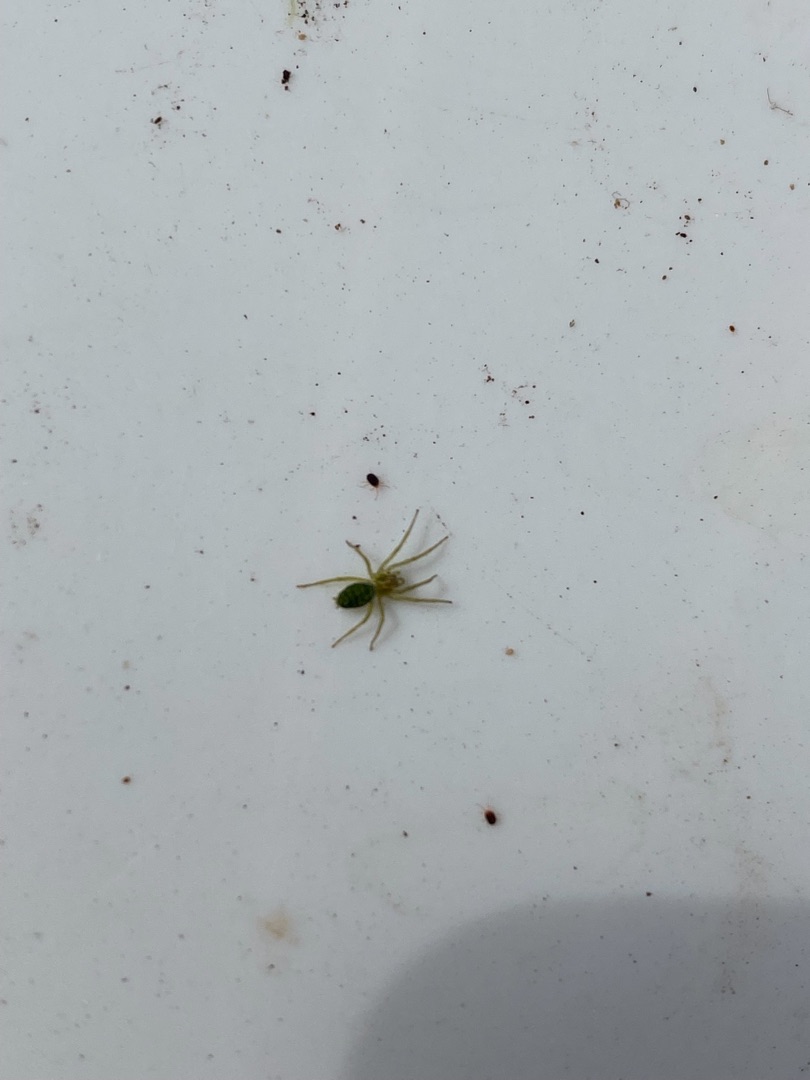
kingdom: Animalia
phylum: Arthropoda
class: Arachnida
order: Araneae
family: Dictynidae
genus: Nigma
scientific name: Nigma walckenaeri
